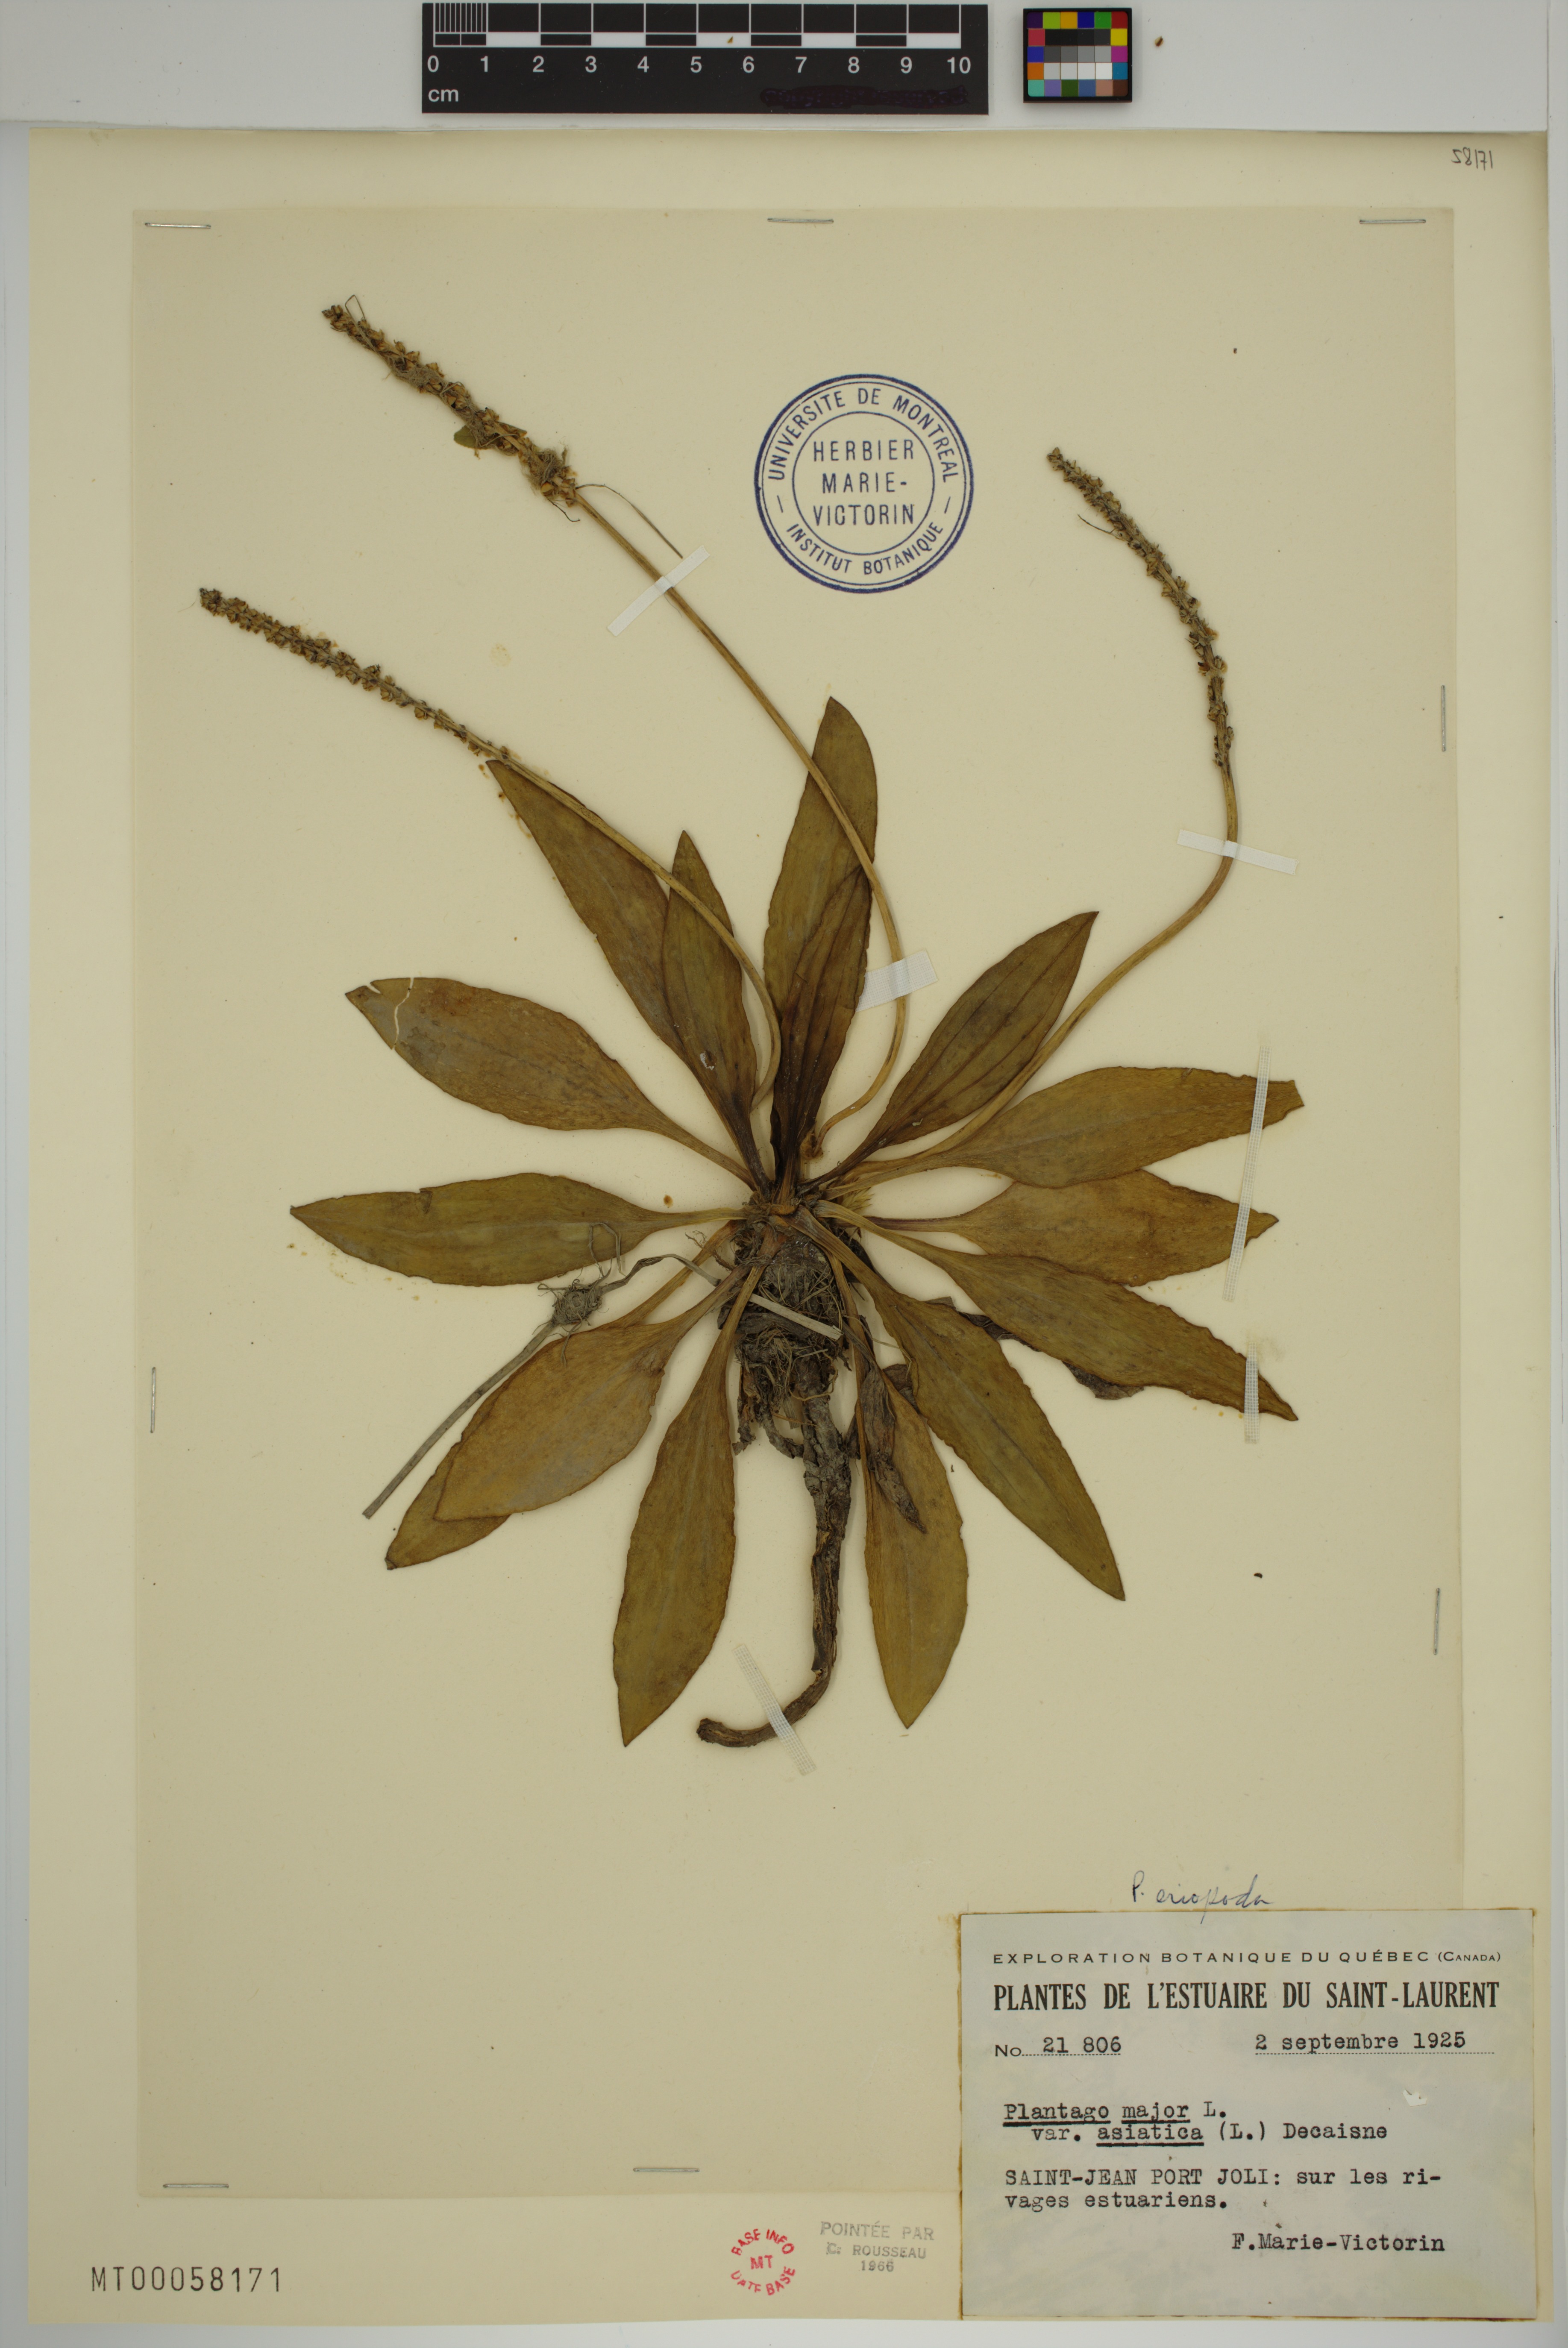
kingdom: Plantae
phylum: Tracheophyta
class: Magnoliopsida
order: Lamiales
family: Plantaginaceae
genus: Plantago
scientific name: Plantago eriopoda
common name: Alkali plantain
